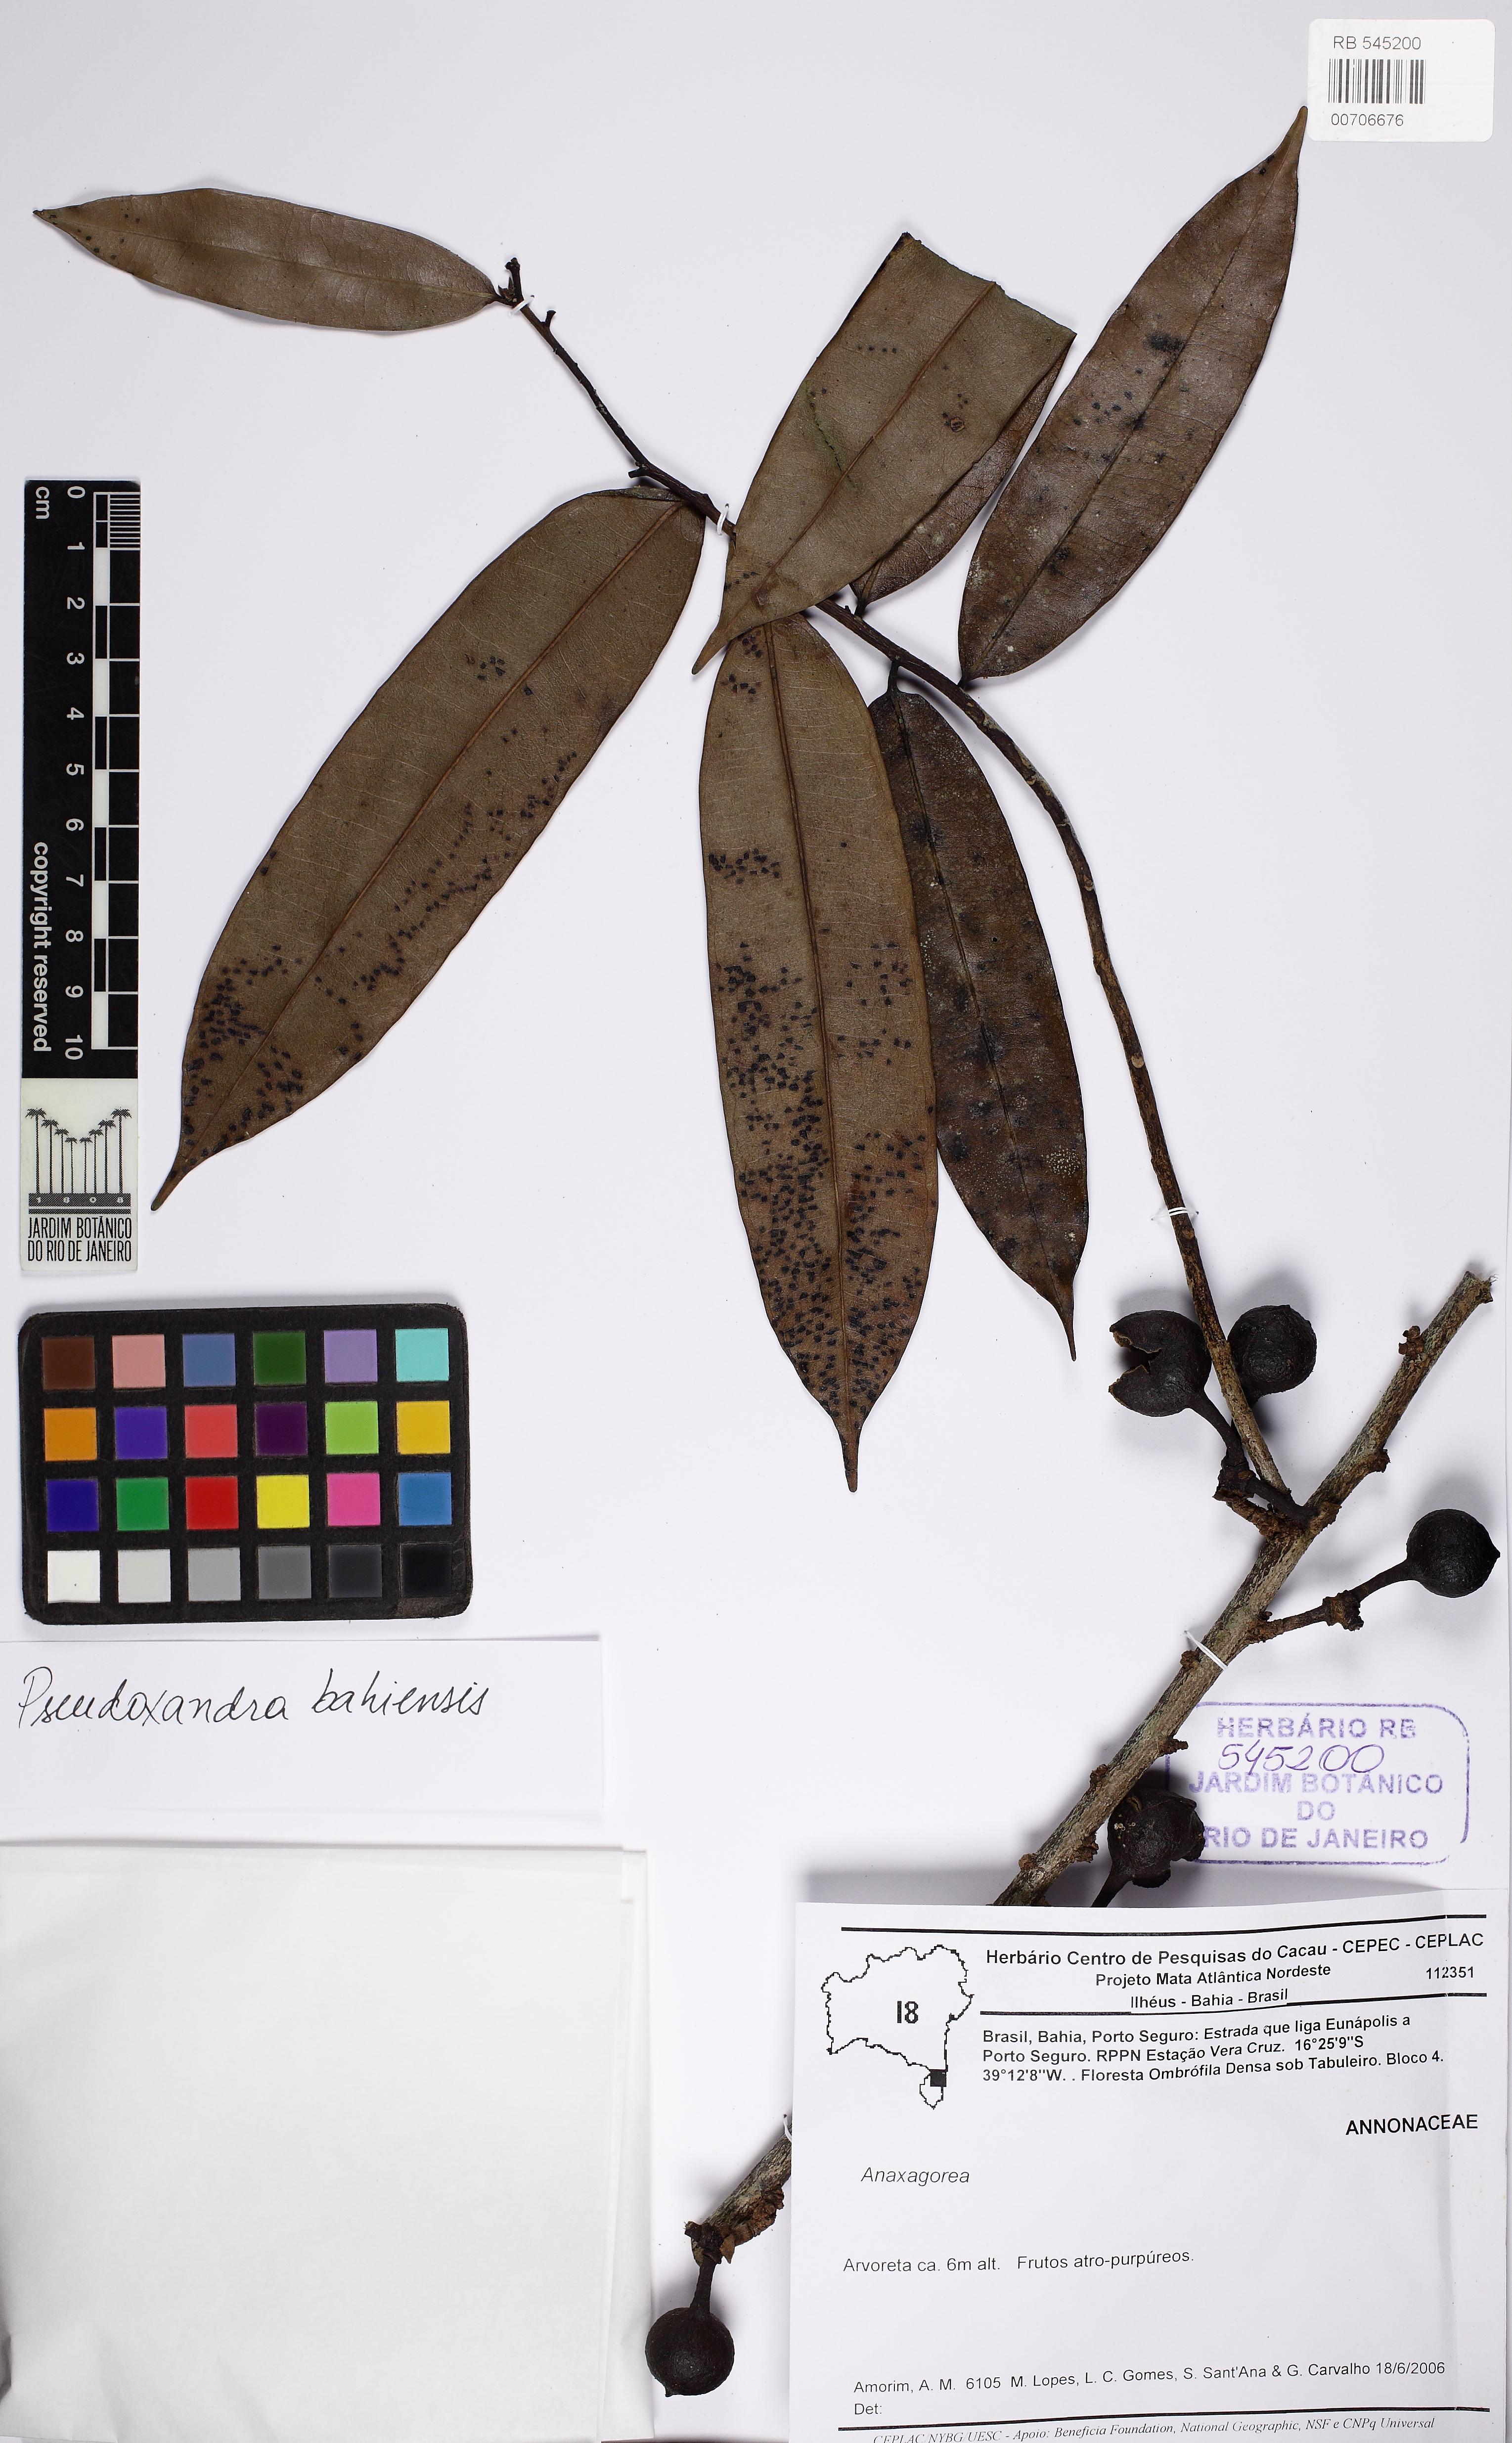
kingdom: Plantae
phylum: Tracheophyta
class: Magnoliopsida
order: Magnoliales
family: Annonaceae
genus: Pseudoxandra
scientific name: Pseudoxandra bahiensis
